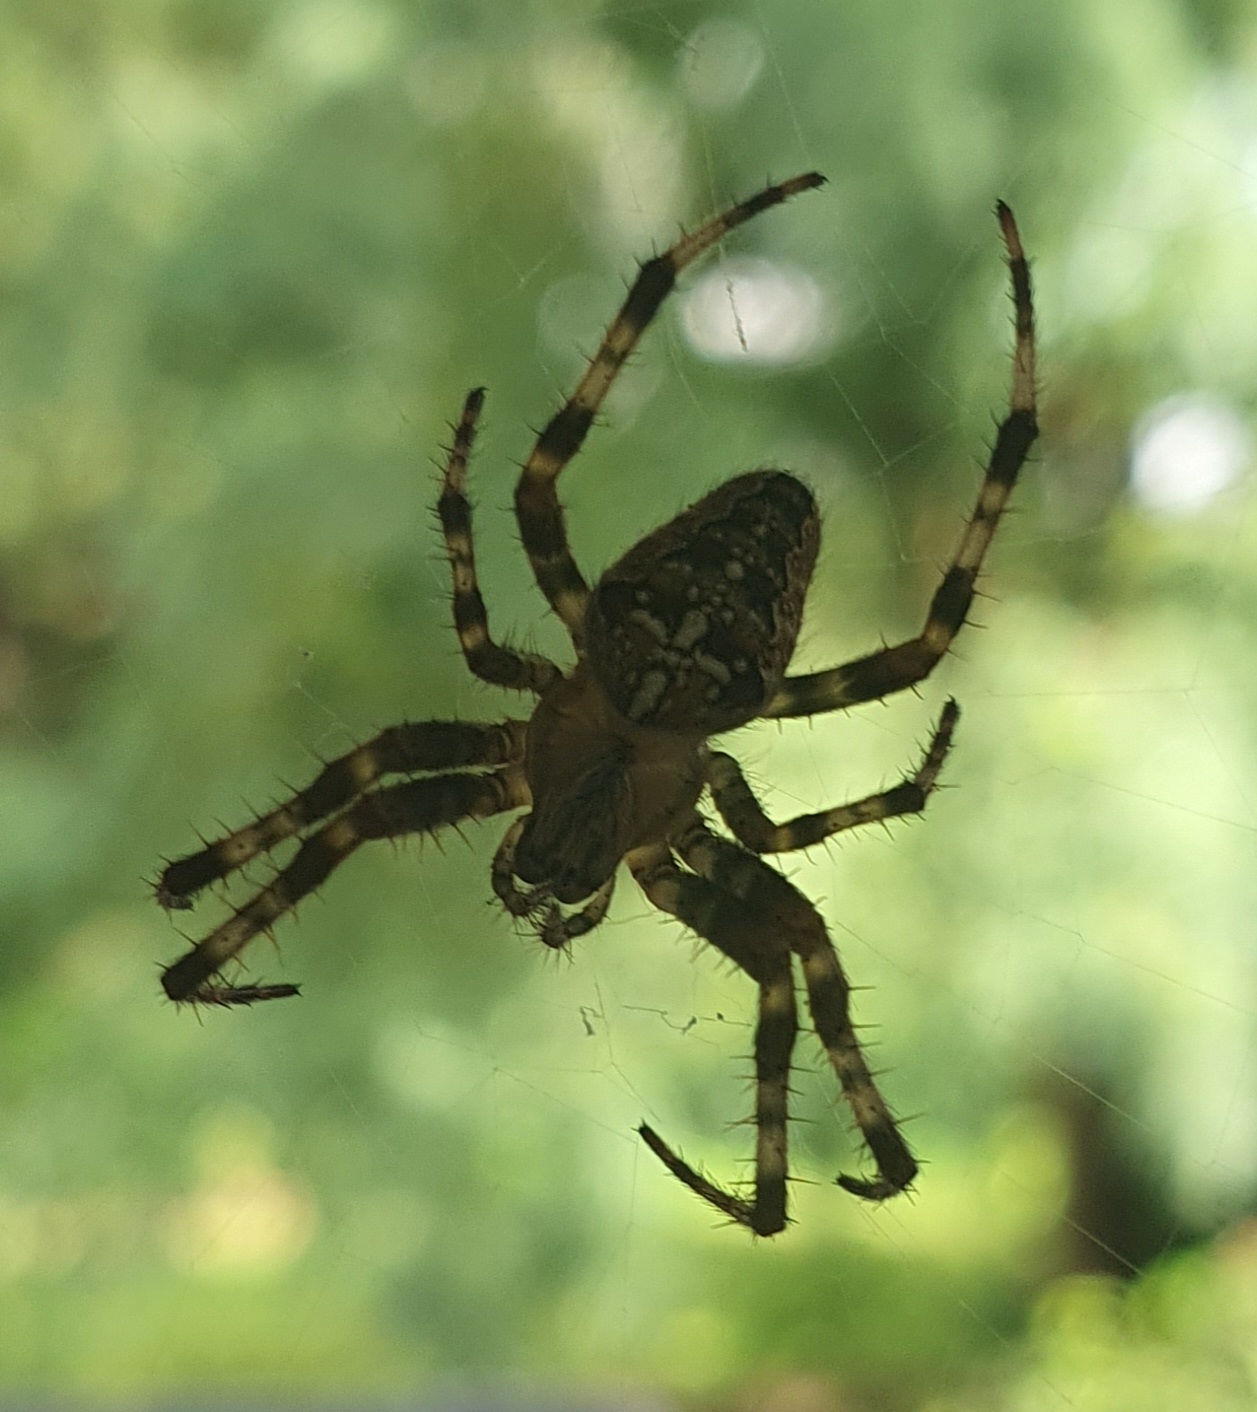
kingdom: Animalia
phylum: Arthropoda
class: Arachnida
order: Araneae
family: Araneidae
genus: Araneus
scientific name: Araneus diadematus
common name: Korsedderkop
